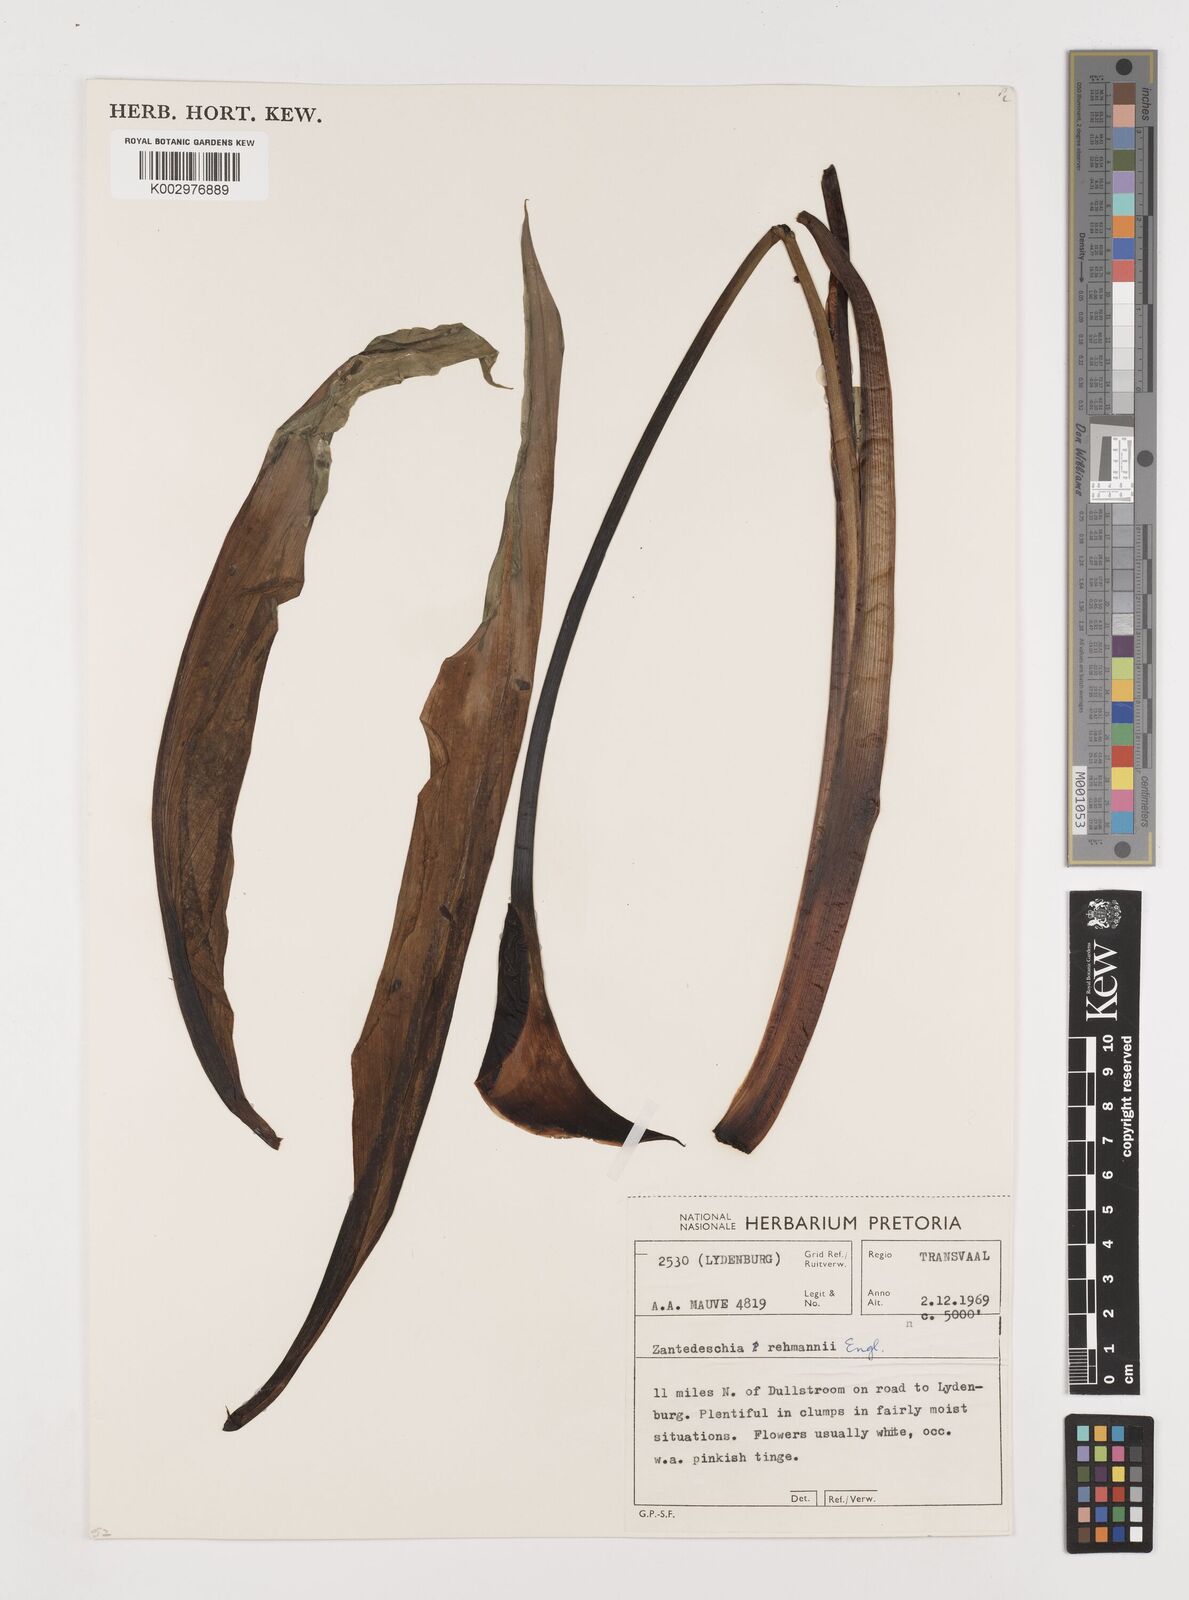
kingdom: Plantae
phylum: Tracheophyta
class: Liliopsida
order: Alismatales
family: Araceae
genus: Zantedeschia
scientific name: Zantedeschia rehmannii
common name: Red calla
